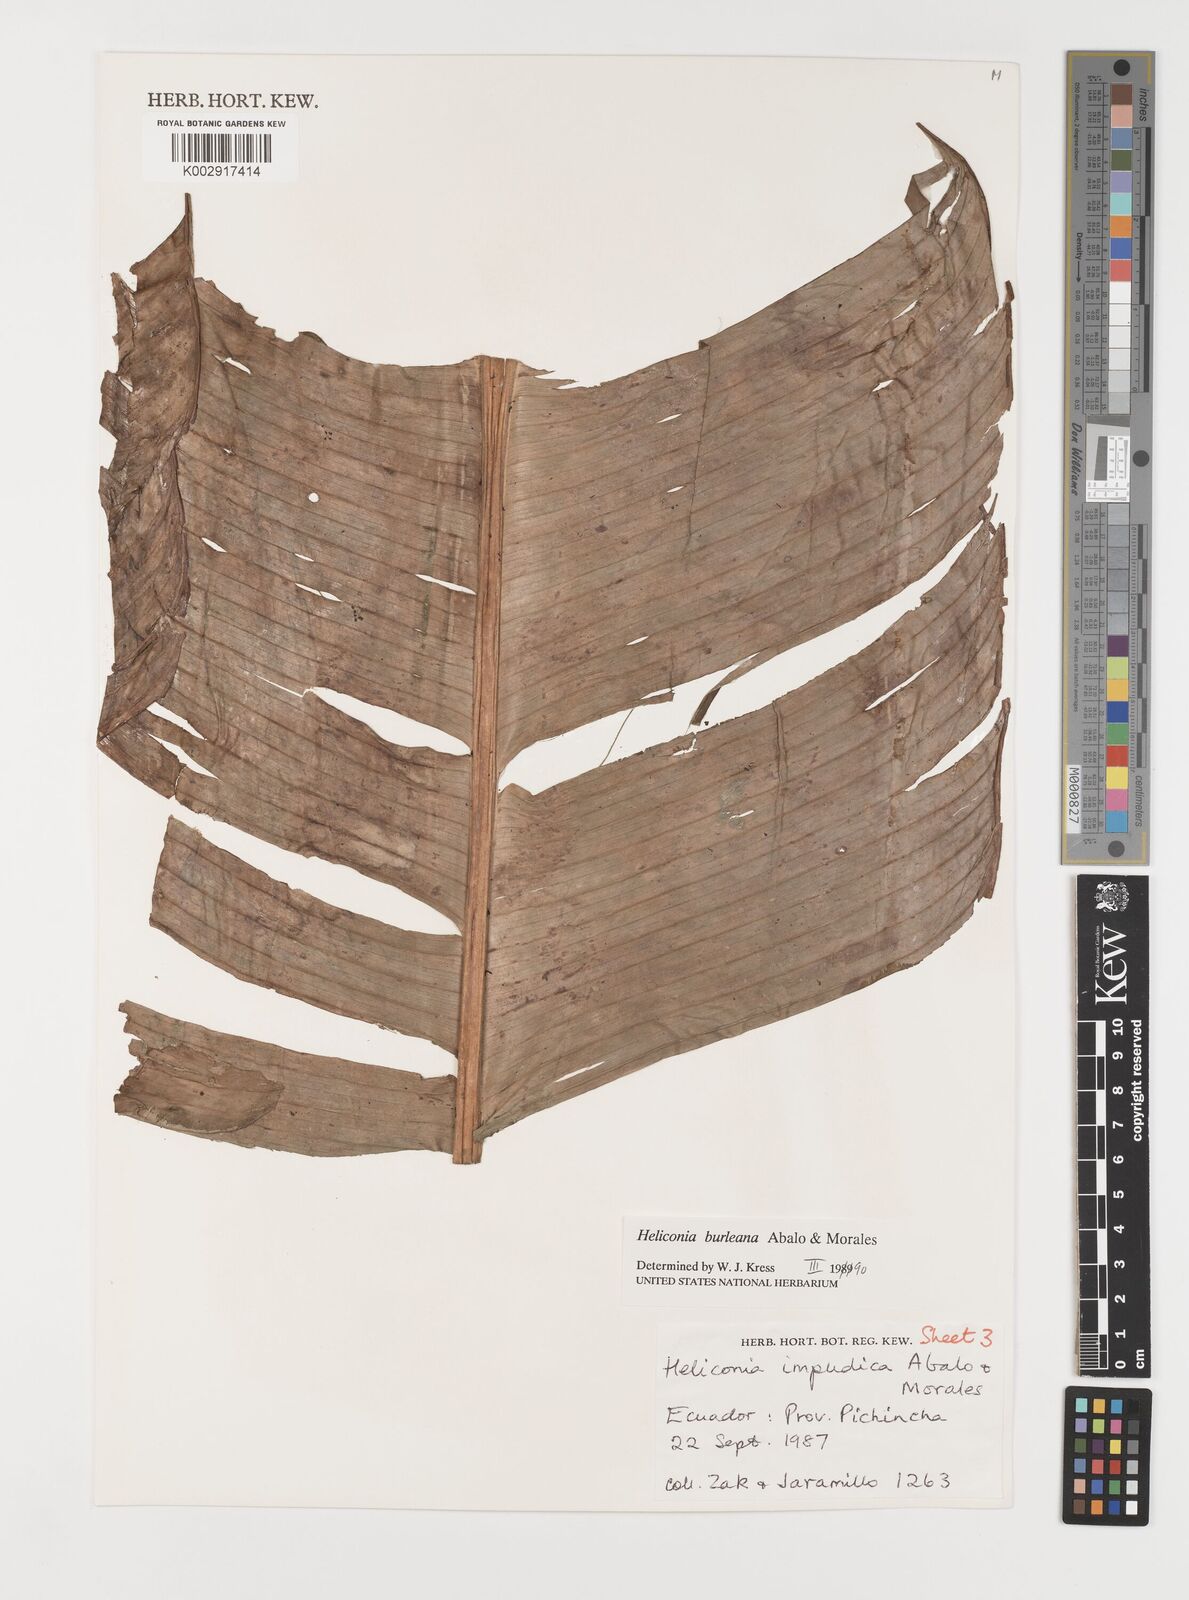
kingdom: Plantae
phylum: Tracheophyta
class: Liliopsida
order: Zingiberales
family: Heliconiaceae
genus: Heliconia
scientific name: Heliconia burleana
